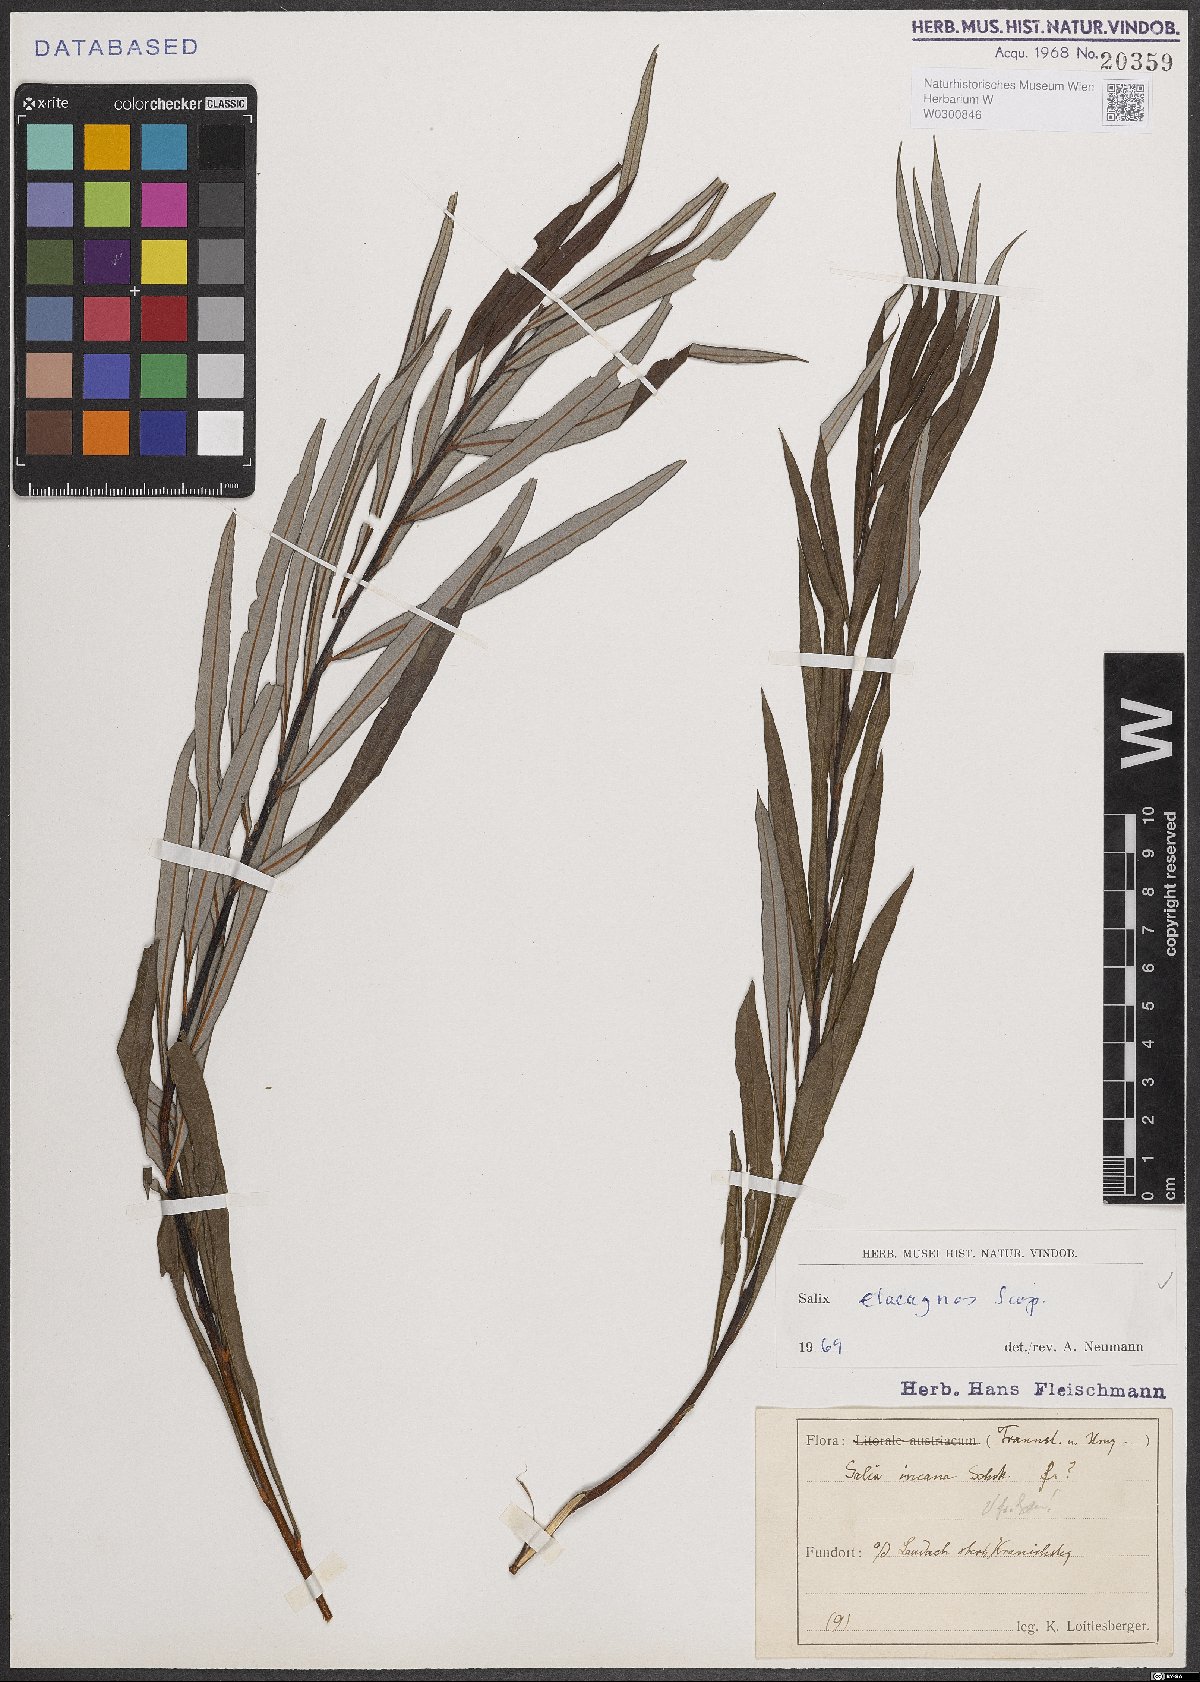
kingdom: Plantae
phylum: Tracheophyta
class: Magnoliopsida
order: Malpighiales
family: Salicaceae
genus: Salix
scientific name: Salix eleagnos
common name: Elaeagnus willow
